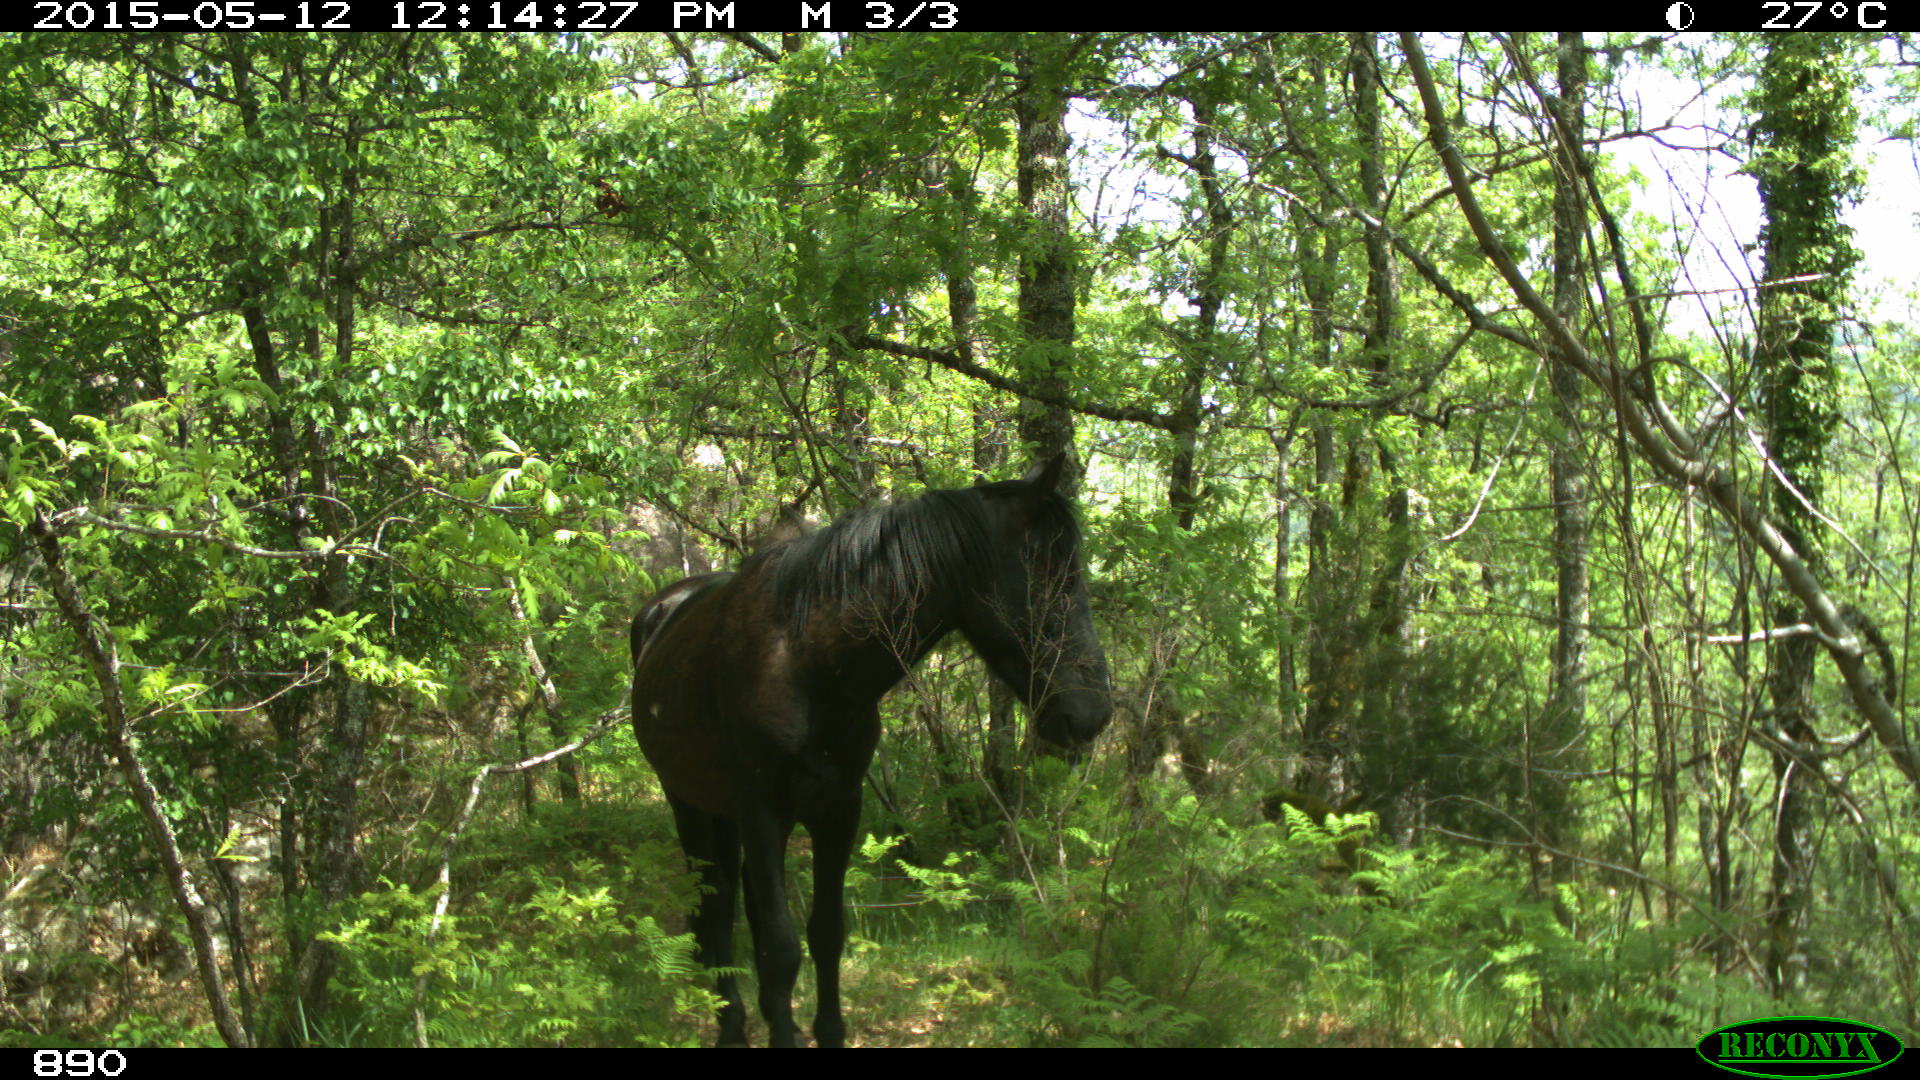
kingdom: Animalia
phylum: Chordata
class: Mammalia
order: Perissodactyla
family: Equidae
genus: Equus
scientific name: Equus caballus
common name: Horse
